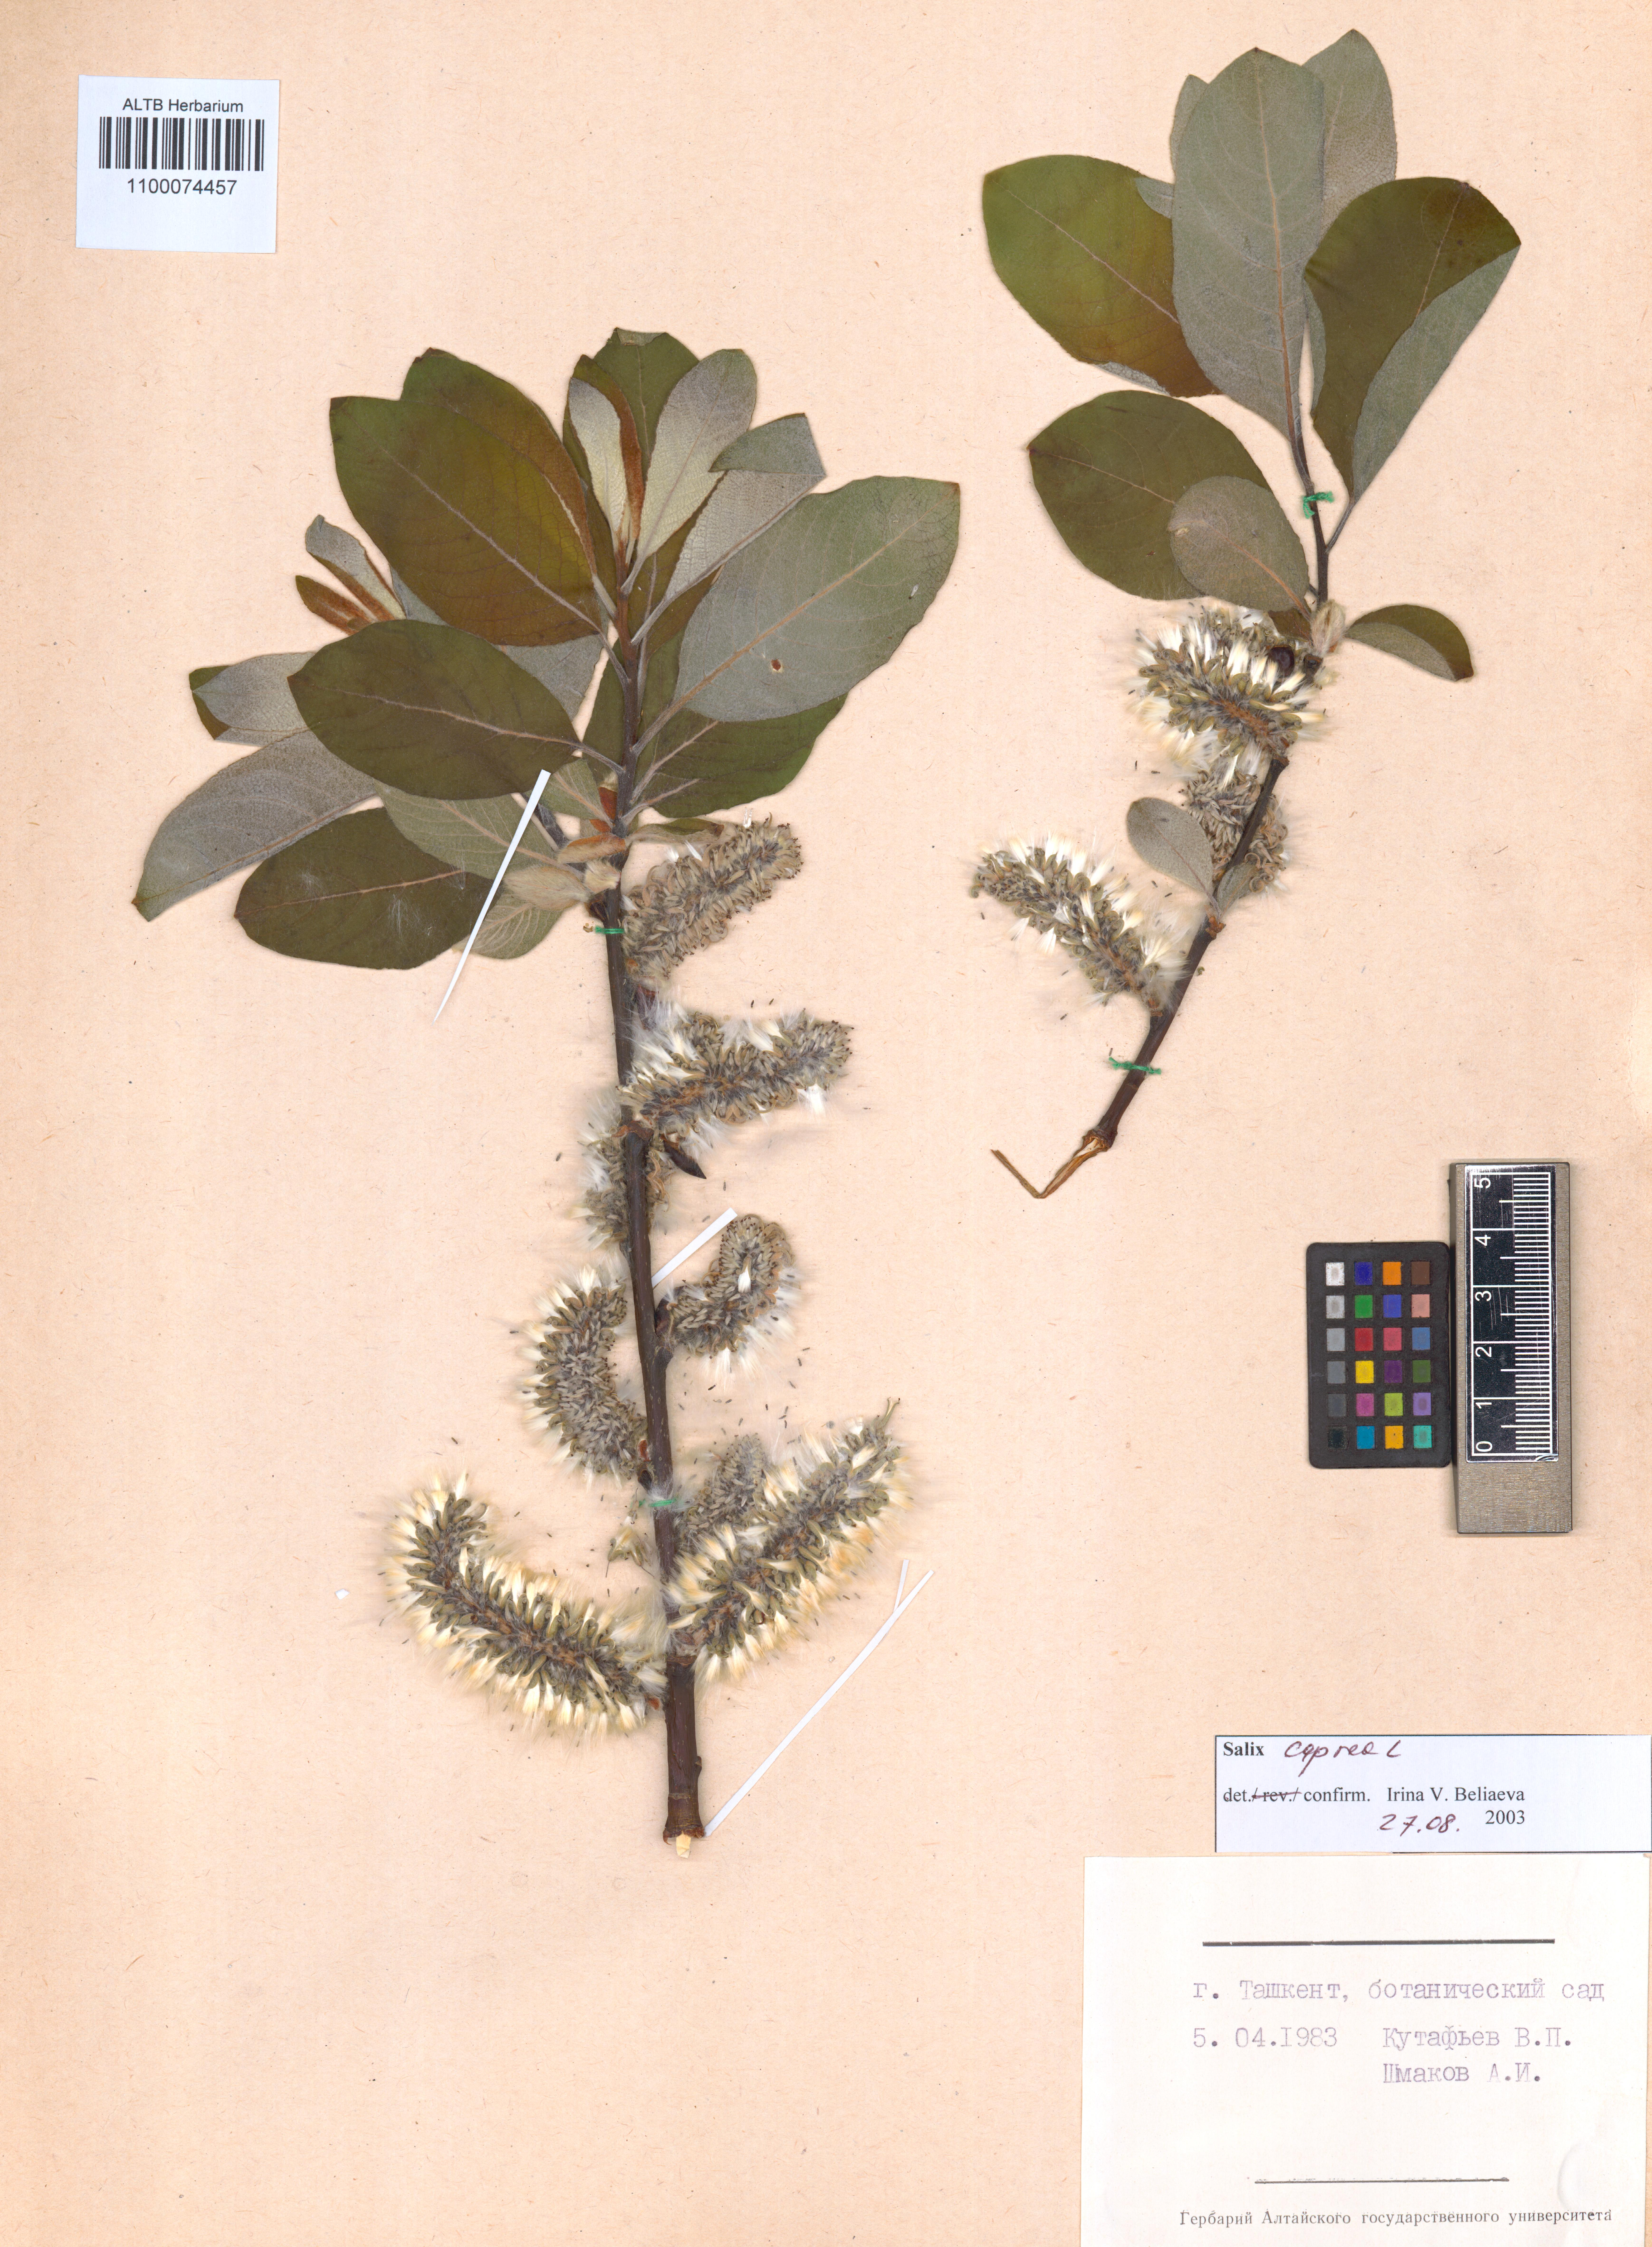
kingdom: Plantae
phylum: Tracheophyta
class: Magnoliopsida
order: Malpighiales
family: Salicaceae
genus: Salix
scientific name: Salix caprea
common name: Goat willow
